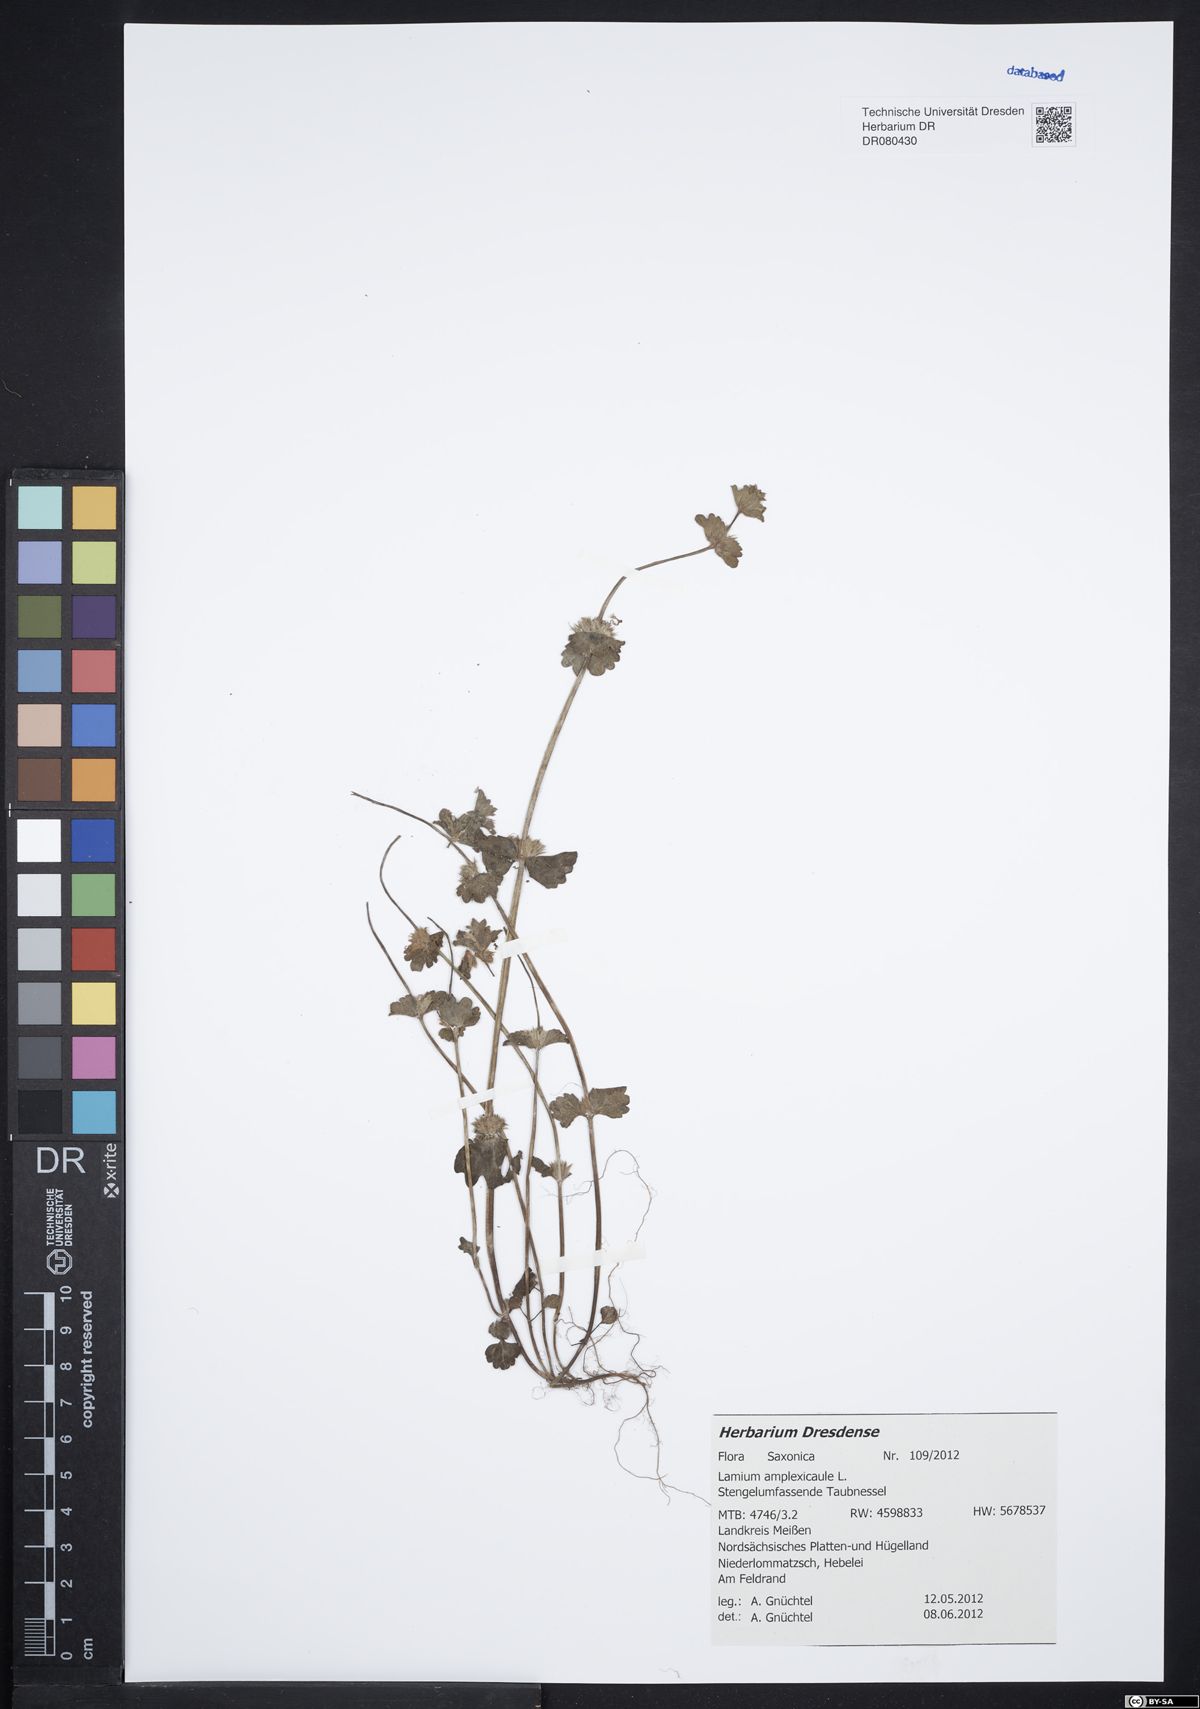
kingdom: Plantae
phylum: Tracheophyta
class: Magnoliopsida
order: Lamiales
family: Lamiaceae
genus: Lamium
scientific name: Lamium amplexicaule
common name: Henbit dead-nettle
